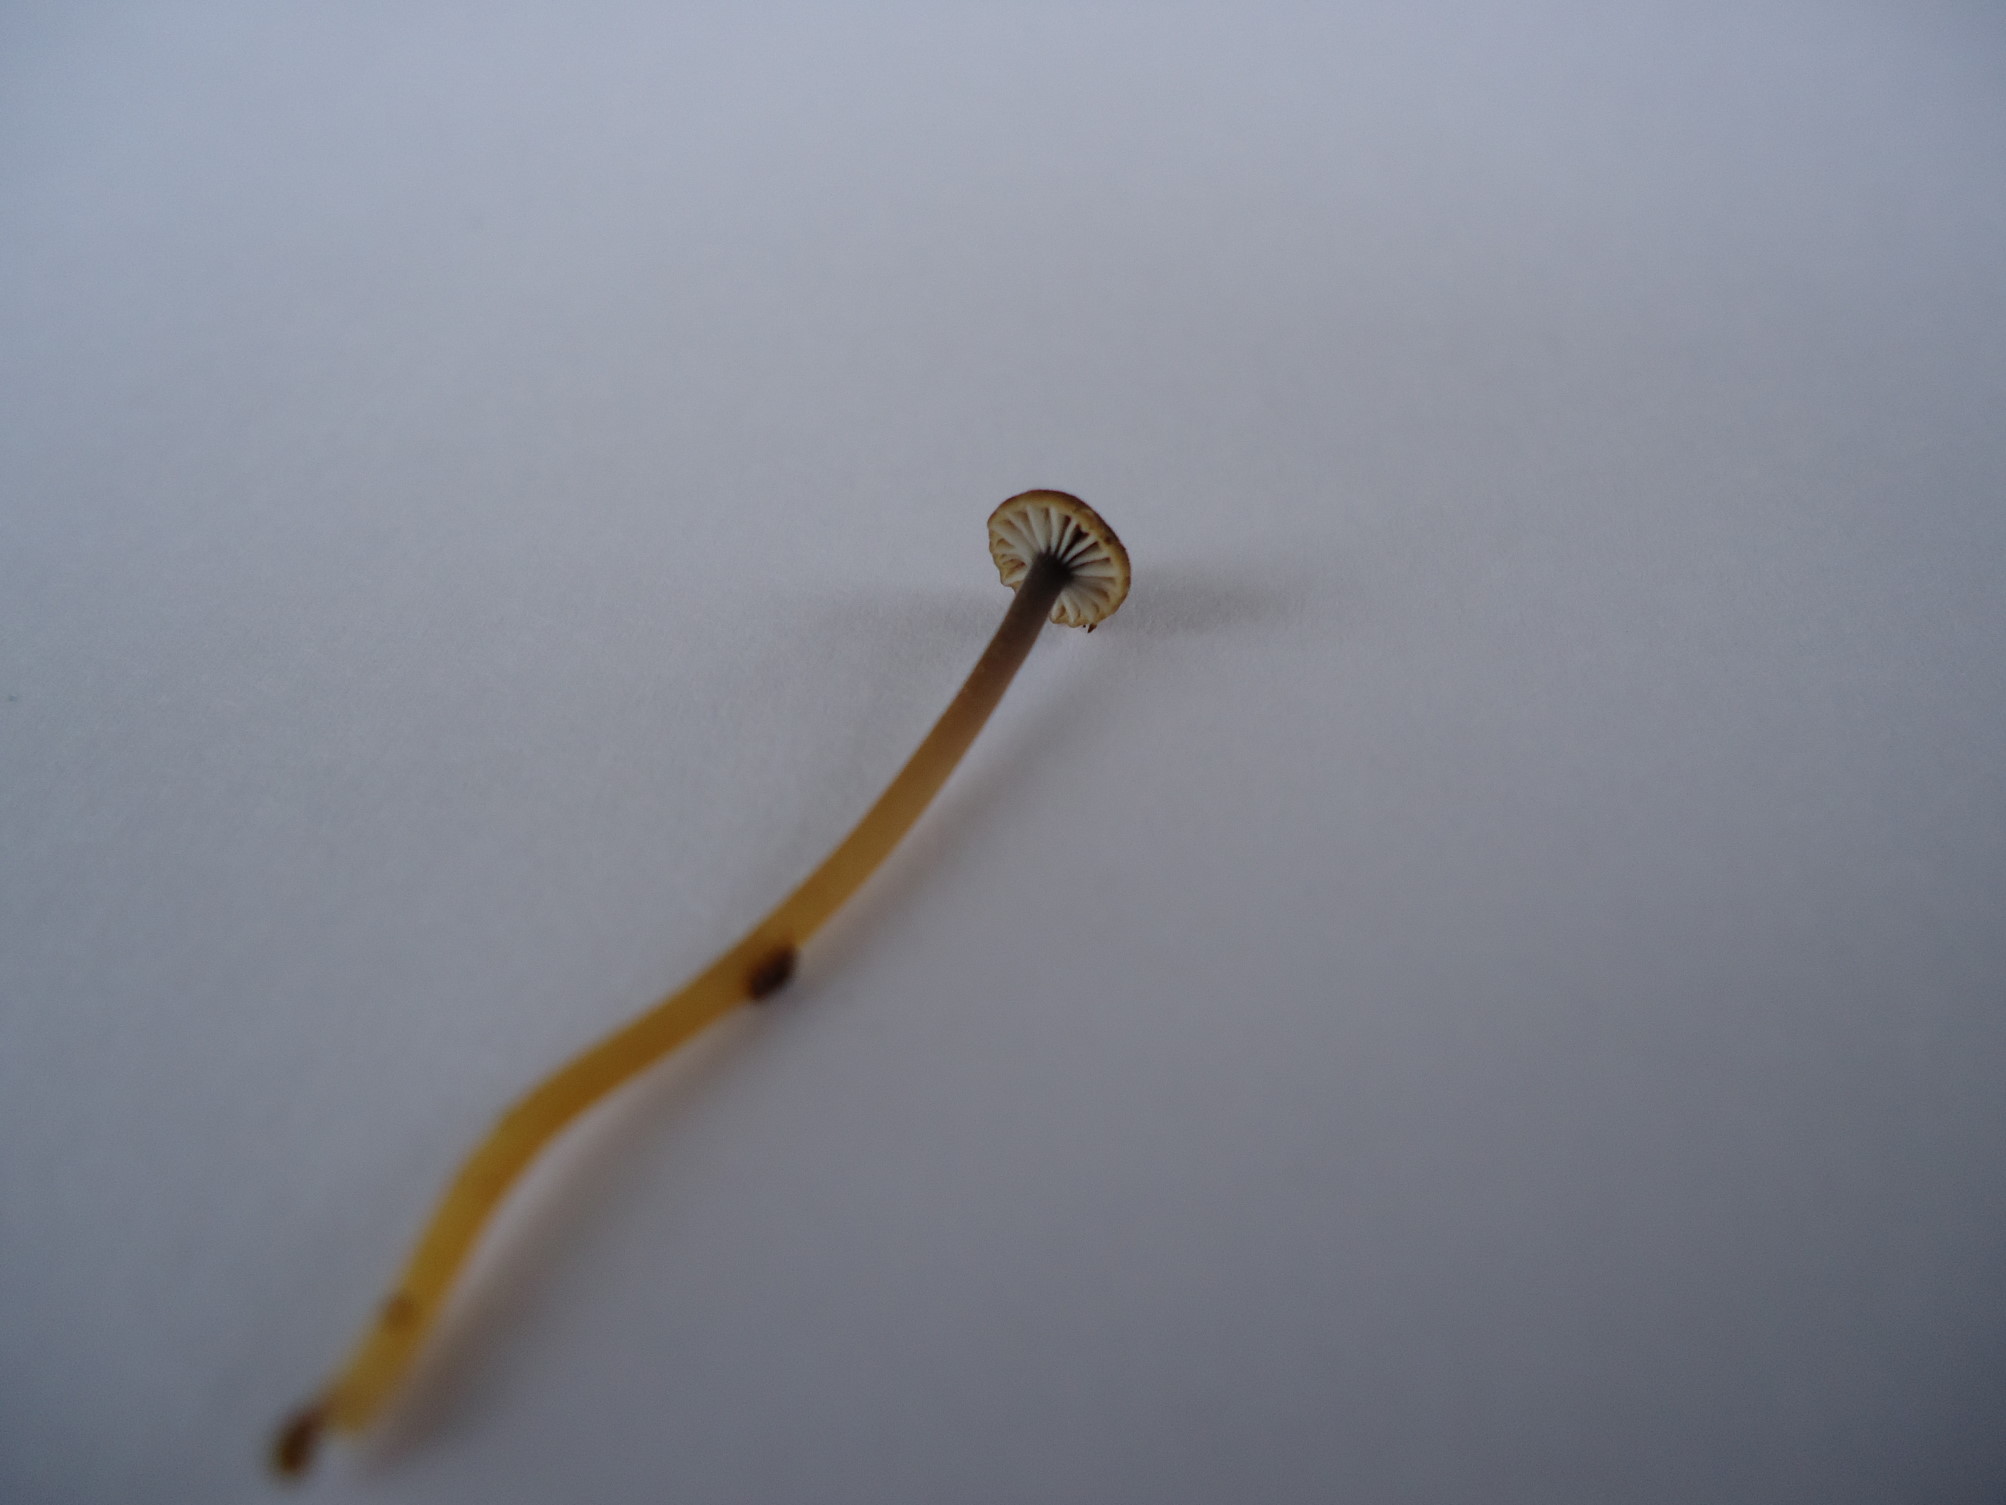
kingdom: Fungi
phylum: Basidiomycota
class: Agaricomycetes
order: Hymenochaetales
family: Rickenellaceae
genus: Rickenella
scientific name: Rickenella swartzii
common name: finstokket mosnavlehat
